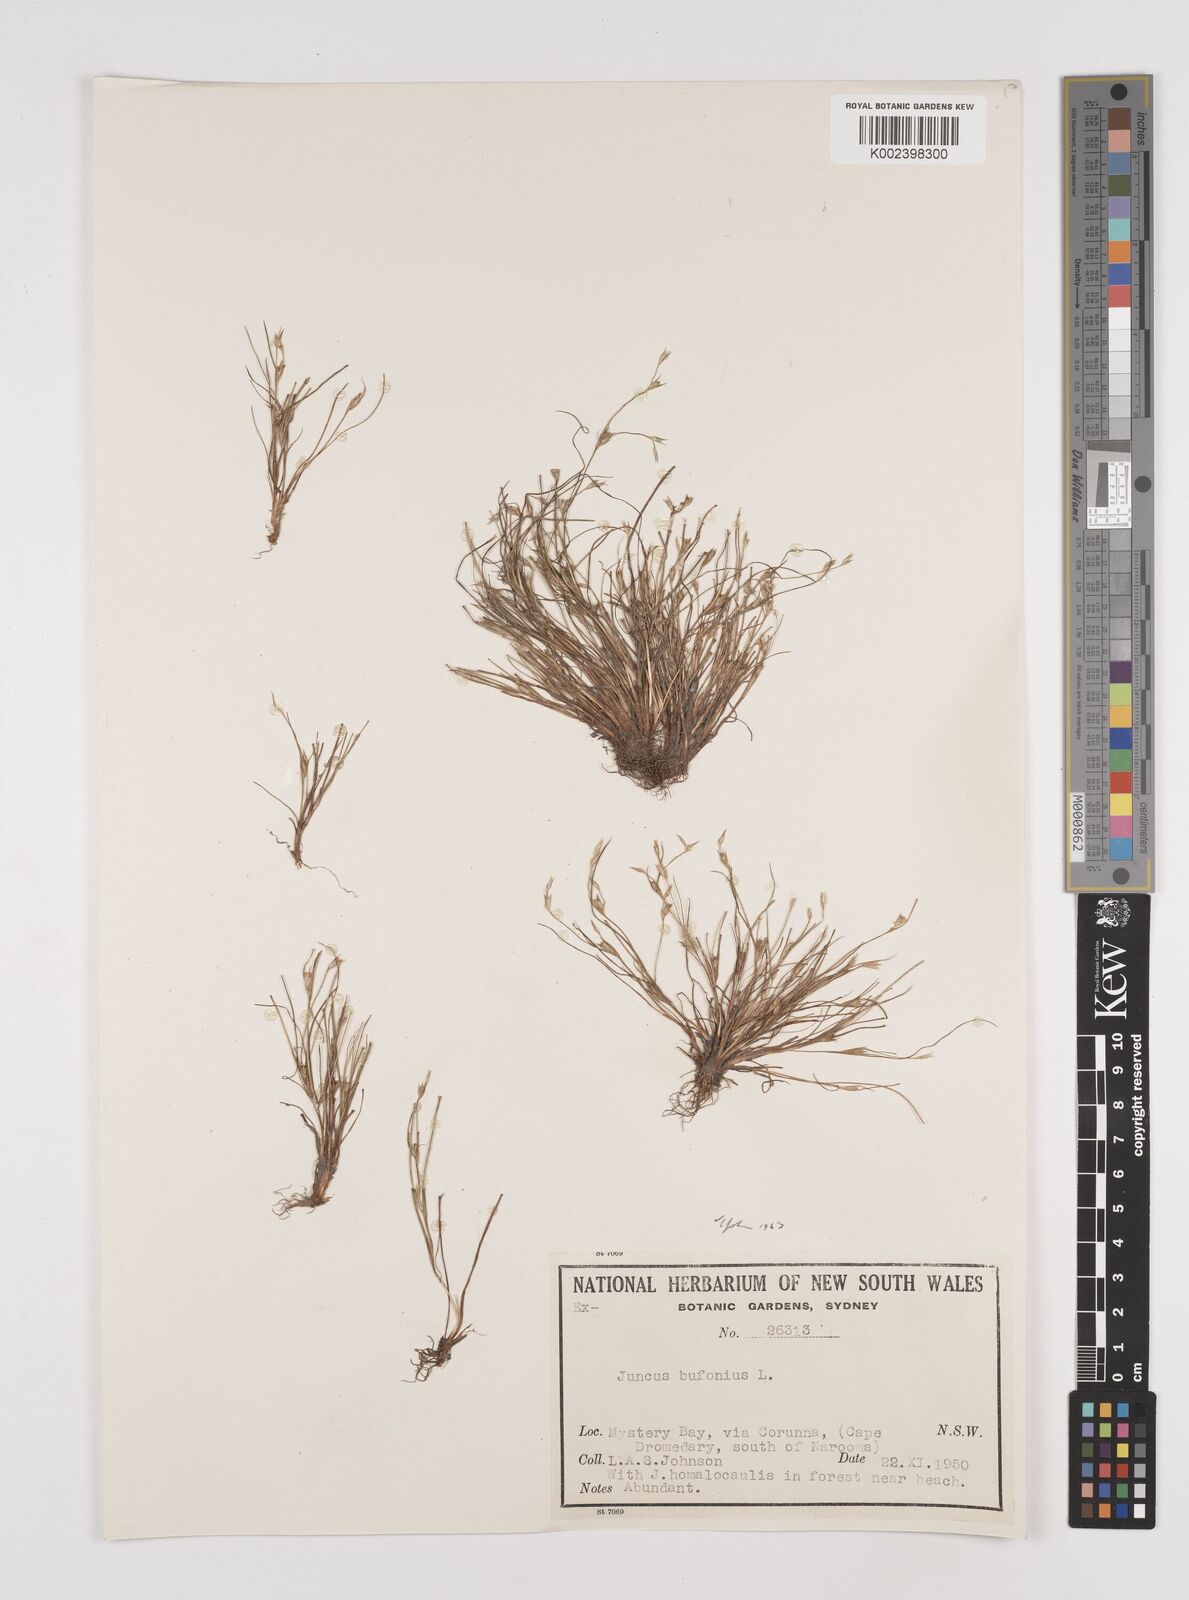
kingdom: Plantae
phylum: Tracheophyta
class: Liliopsida
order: Poales
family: Juncaceae
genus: Juncus
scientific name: Juncus bufonius
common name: Toad rush
